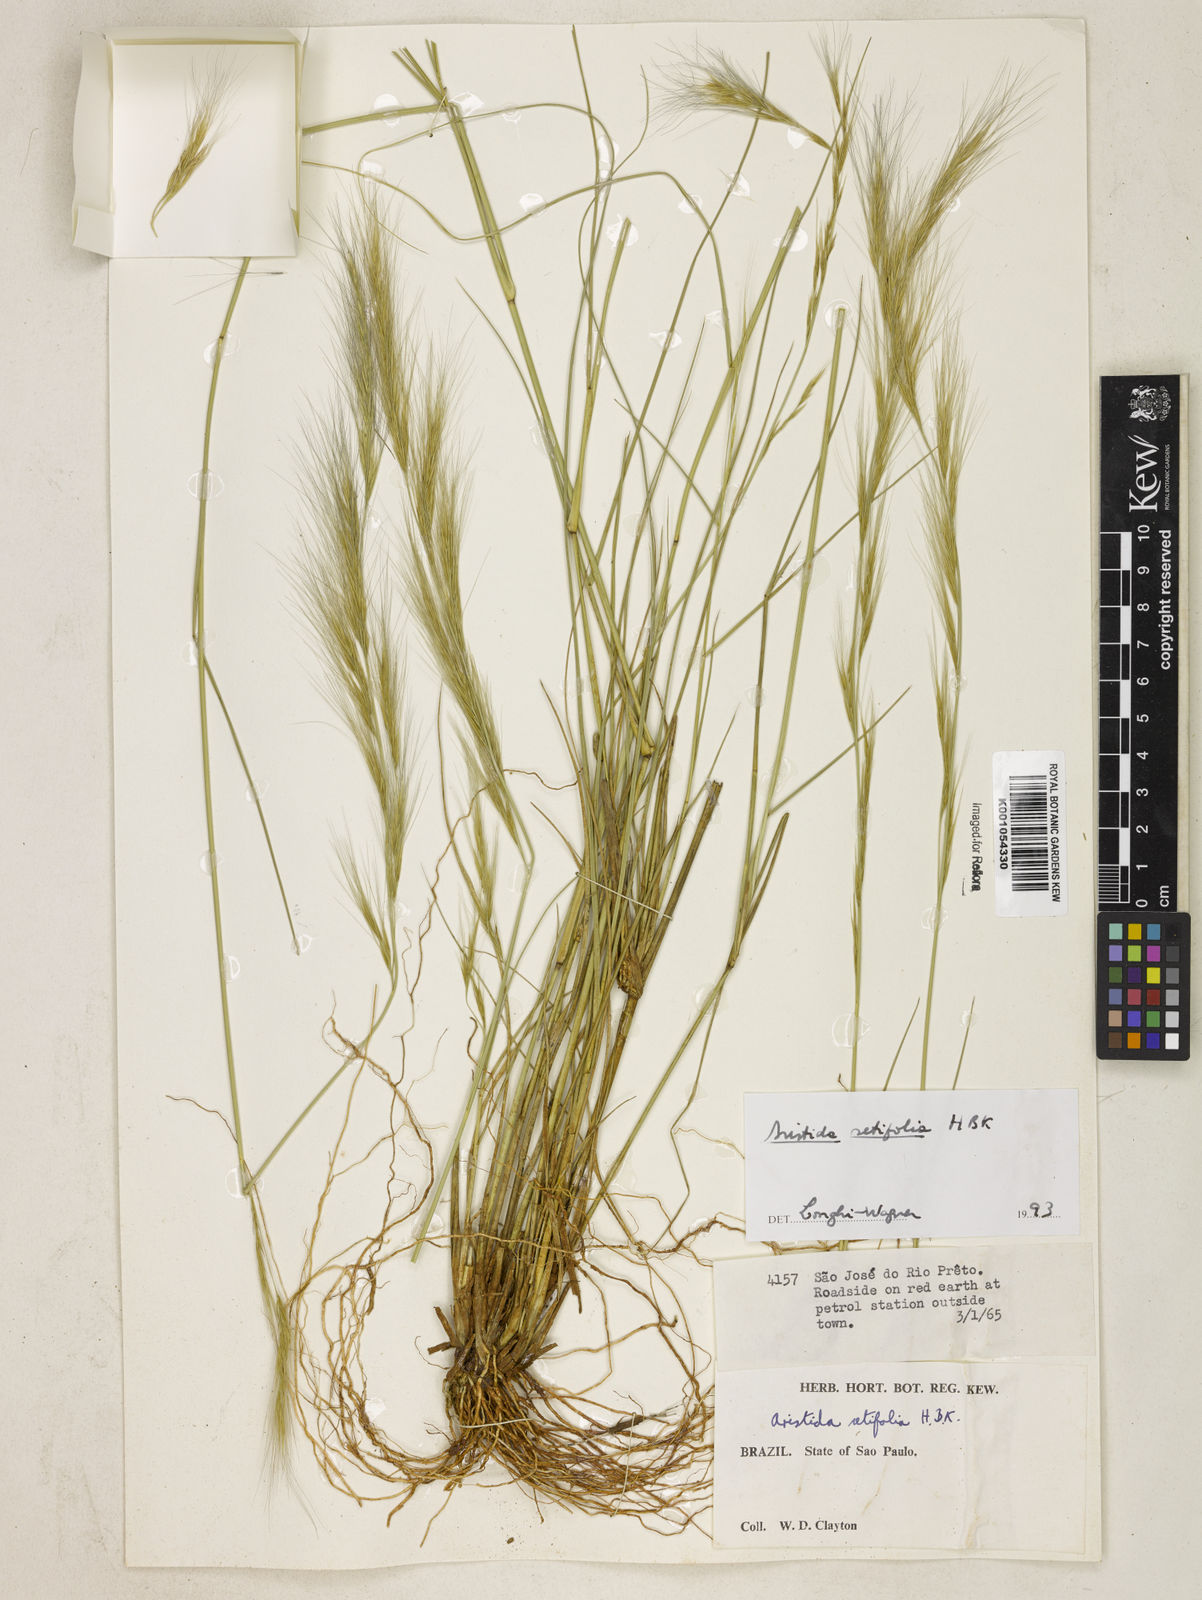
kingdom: Plantae
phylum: Tracheophyta
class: Liliopsida
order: Poales
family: Poaceae
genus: Aristida
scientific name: Aristida setifolia
